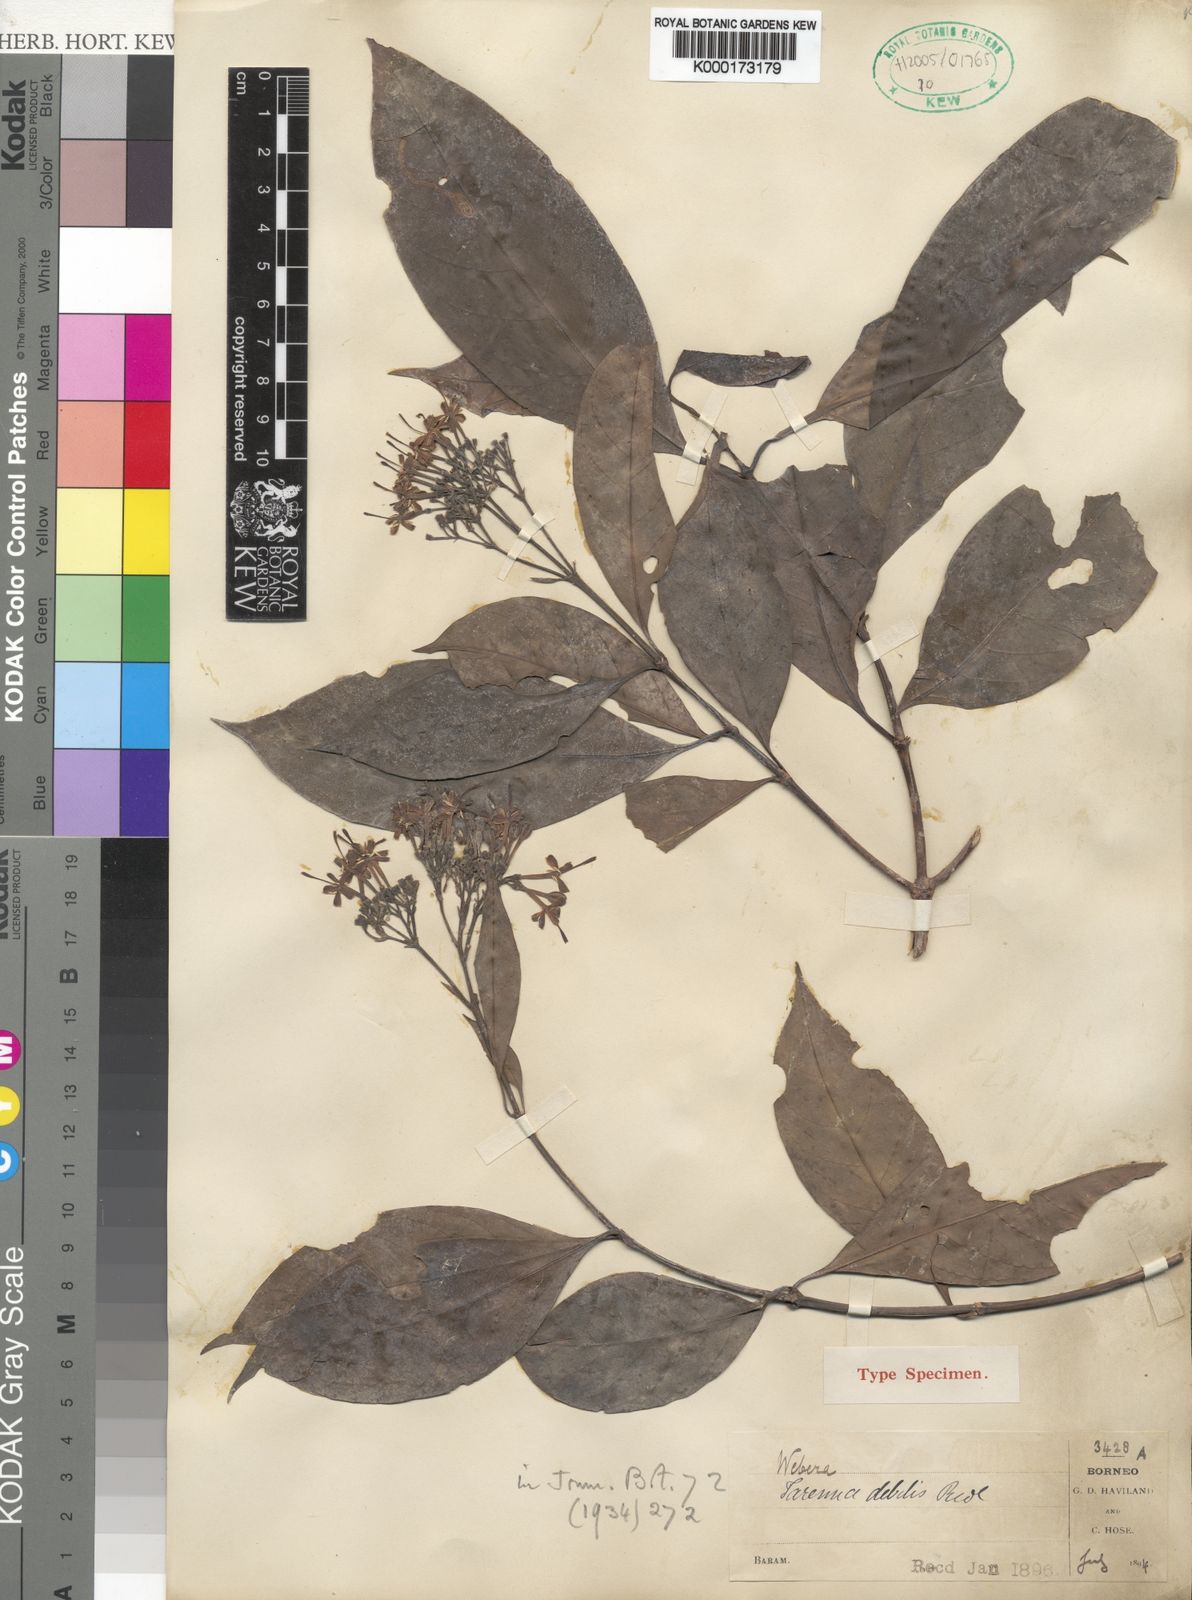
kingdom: Plantae
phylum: Tracheophyta
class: Magnoliopsida
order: Gentianales
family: Rubiaceae
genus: Tarenna
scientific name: Tarenna debilis
